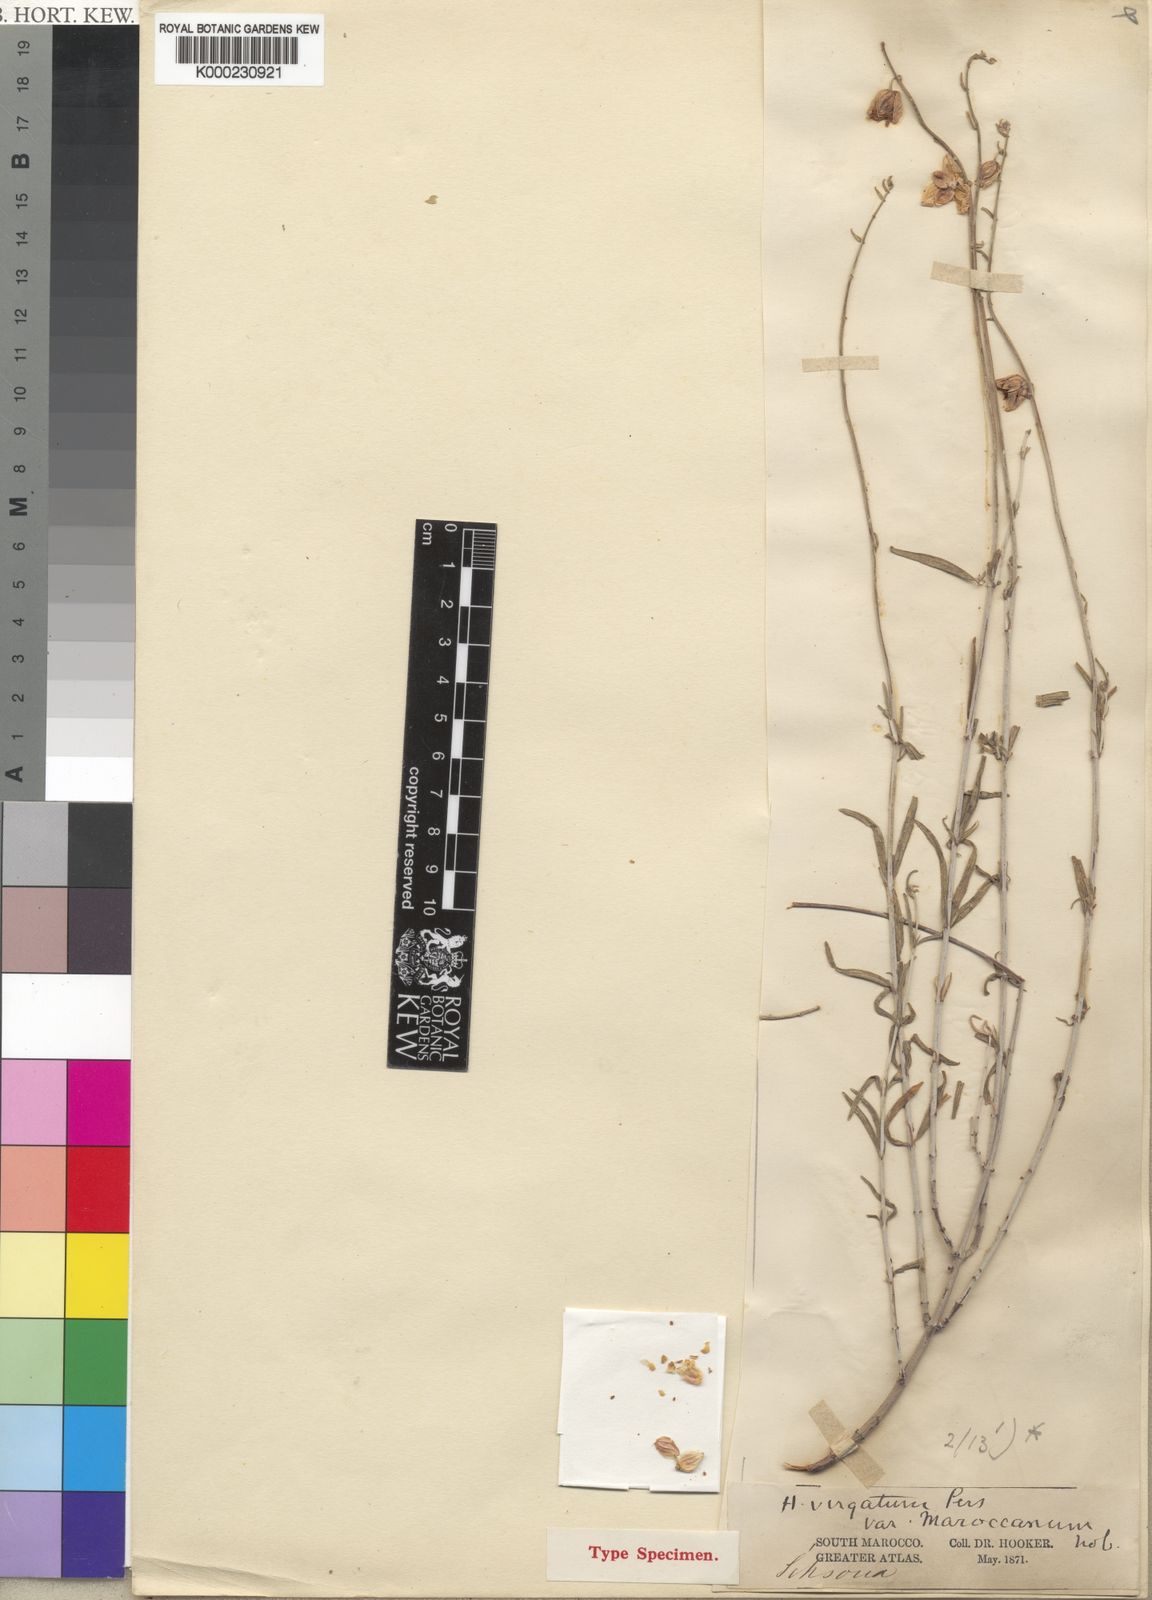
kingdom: Plantae
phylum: Tracheophyta
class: Magnoliopsida
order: Malvales
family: Cistaceae
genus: Helianthemum
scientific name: Helianthemum
